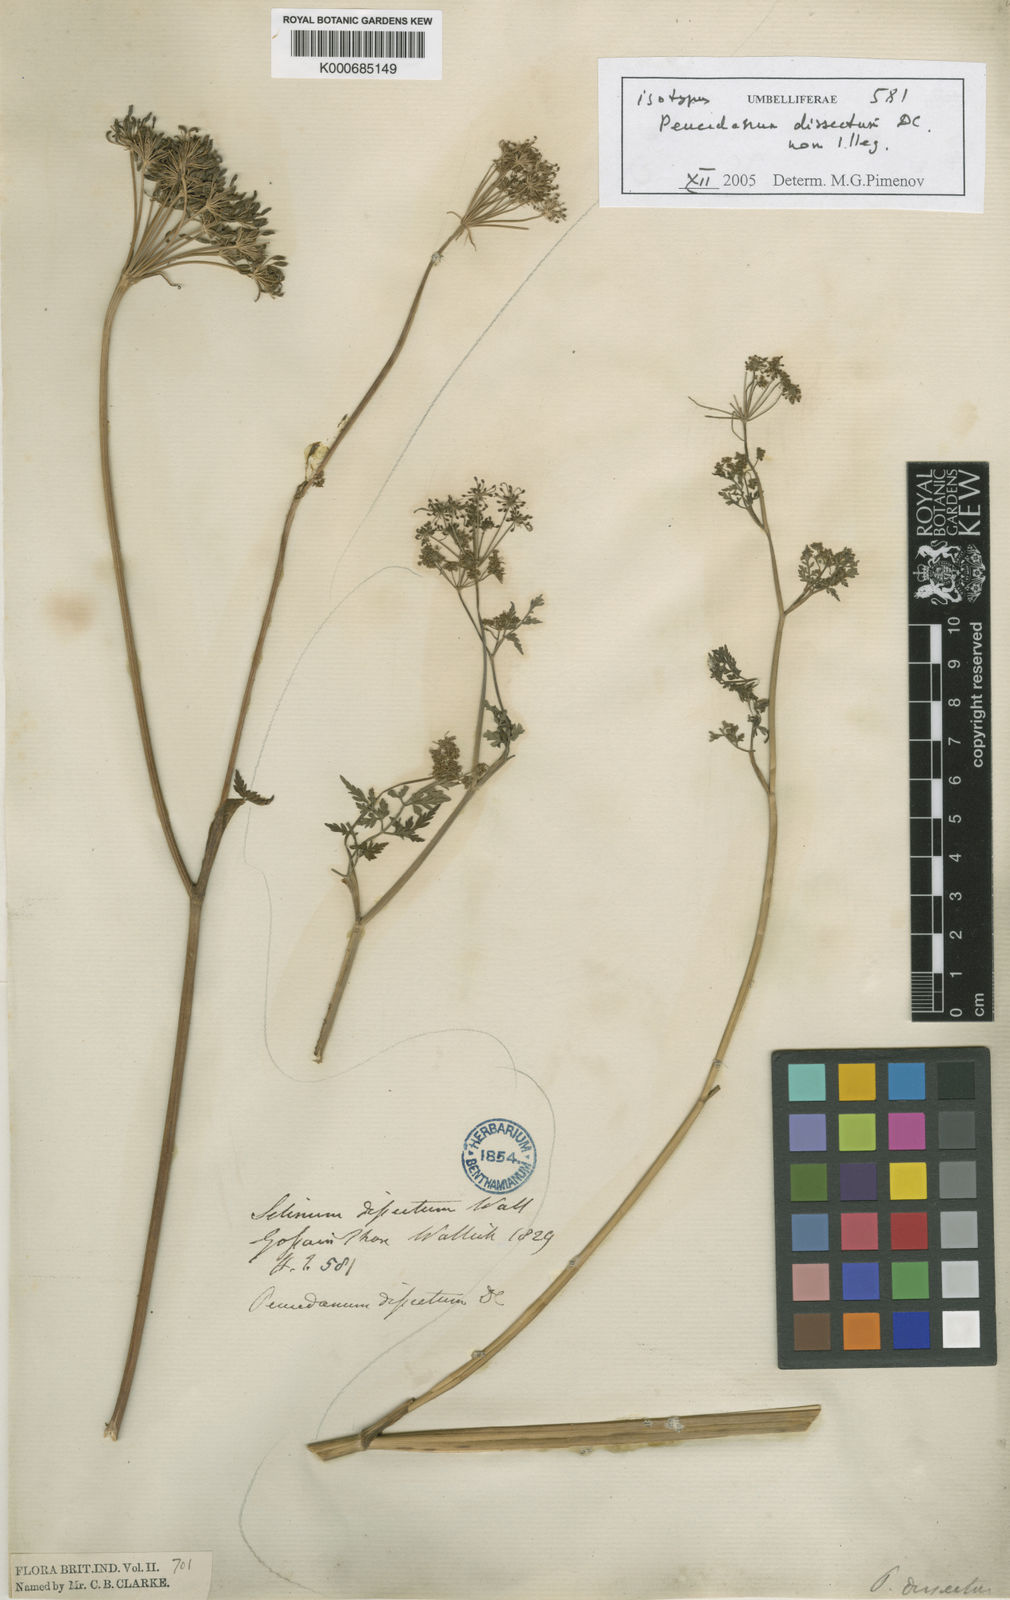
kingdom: Plantae
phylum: Tracheophyta
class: Magnoliopsida
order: Apiales
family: Apiaceae
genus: Selinum
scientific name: Selinum
